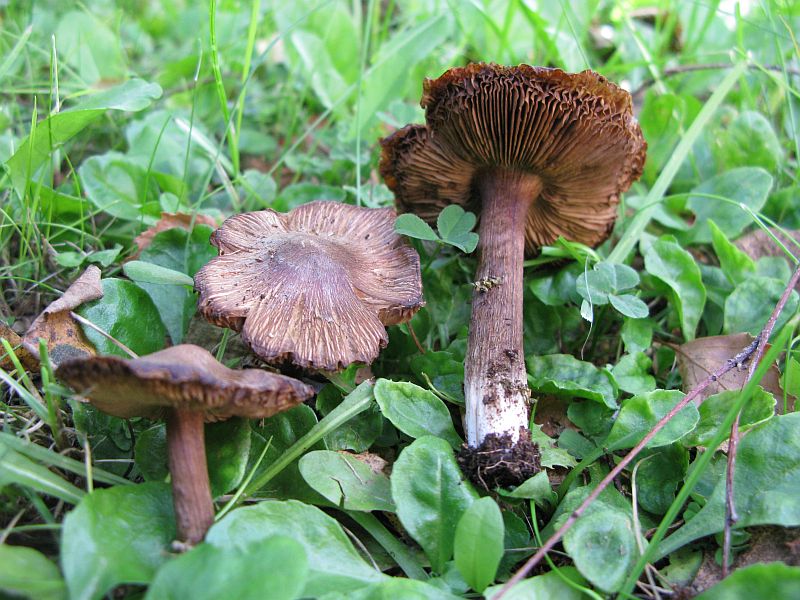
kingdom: Fungi
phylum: Basidiomycota
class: Agaricomycetes
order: Agaricales
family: Inocybaceae
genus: Inocybe
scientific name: Inocybe
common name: trævlhat
